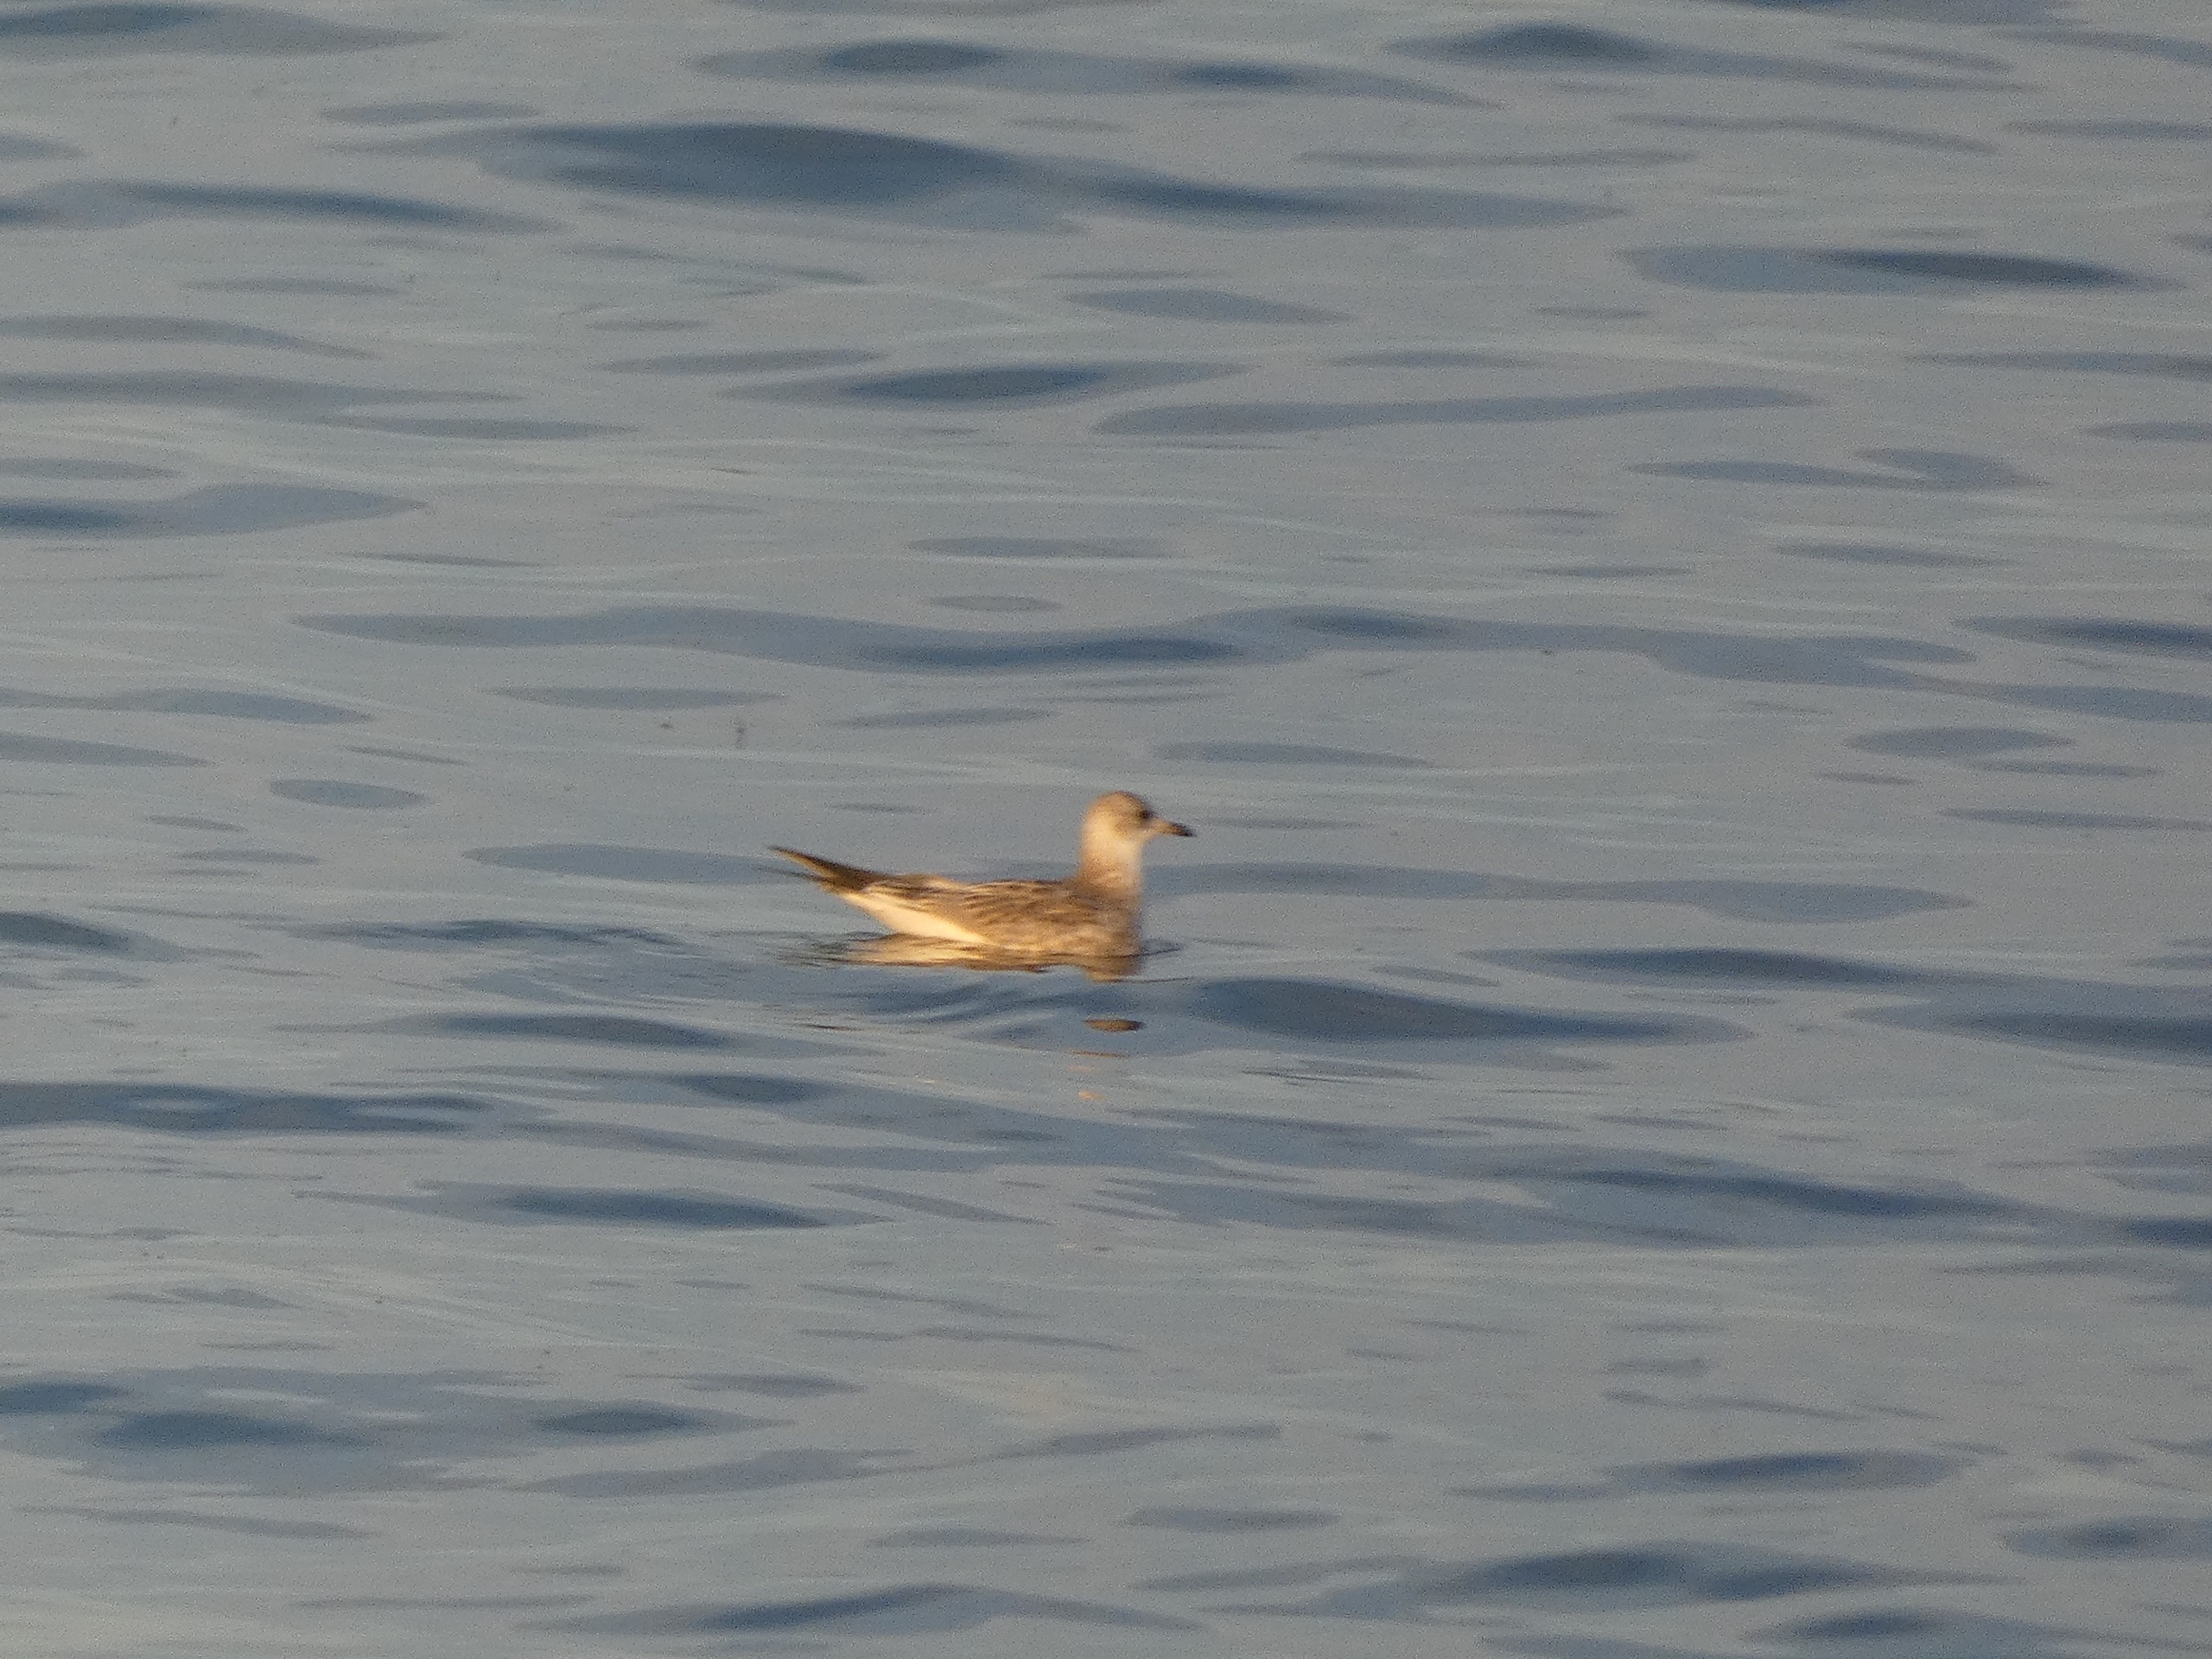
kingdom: Animalia
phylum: Chordata
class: Aves
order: Charadriiformes
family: Laridae
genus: Larus
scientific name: Larus canus
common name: Stormmåge
